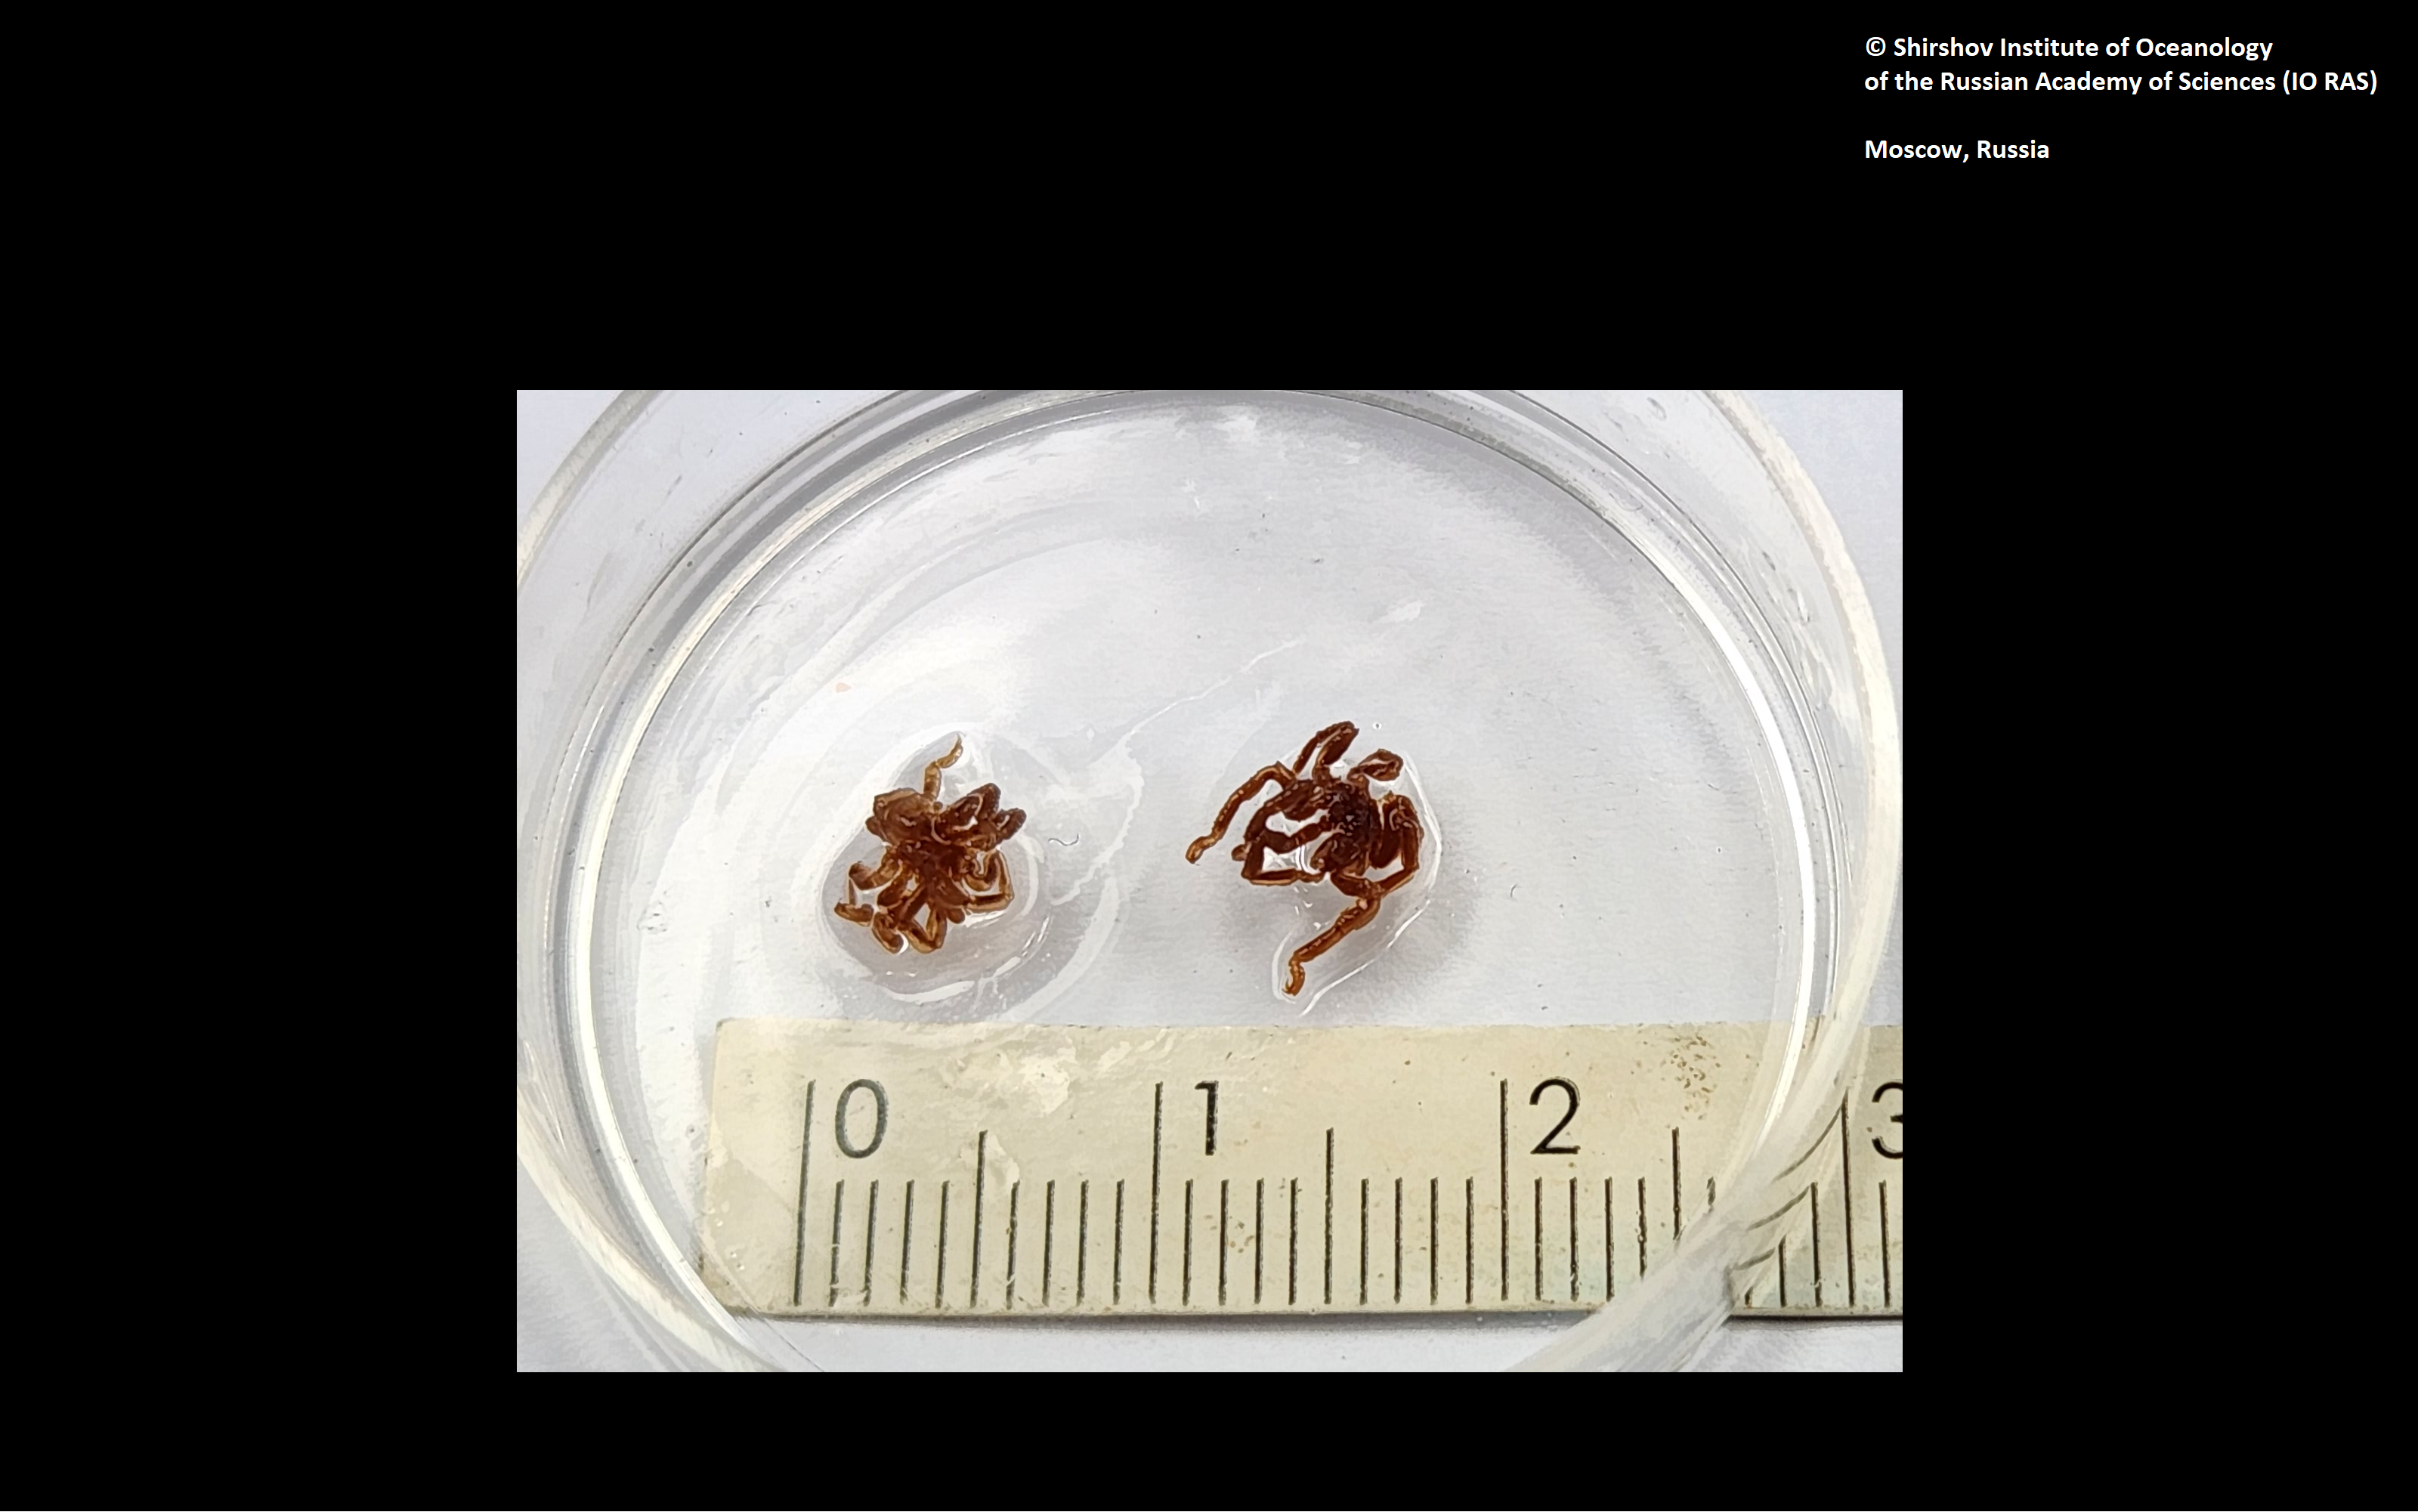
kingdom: Animalia
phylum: Arthropoda
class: Pycnogonida
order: Pantopoda
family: Ammotheidae
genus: Achelia
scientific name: Achelia
